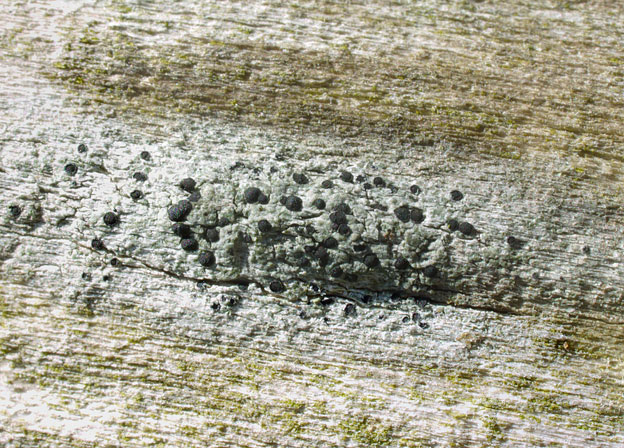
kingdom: Fungi
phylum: Ascomycota
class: Lecanoromycetes
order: Caliciales
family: Physciaceae
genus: Rinodina
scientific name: Rinodina exigua
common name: ege-knaplav
